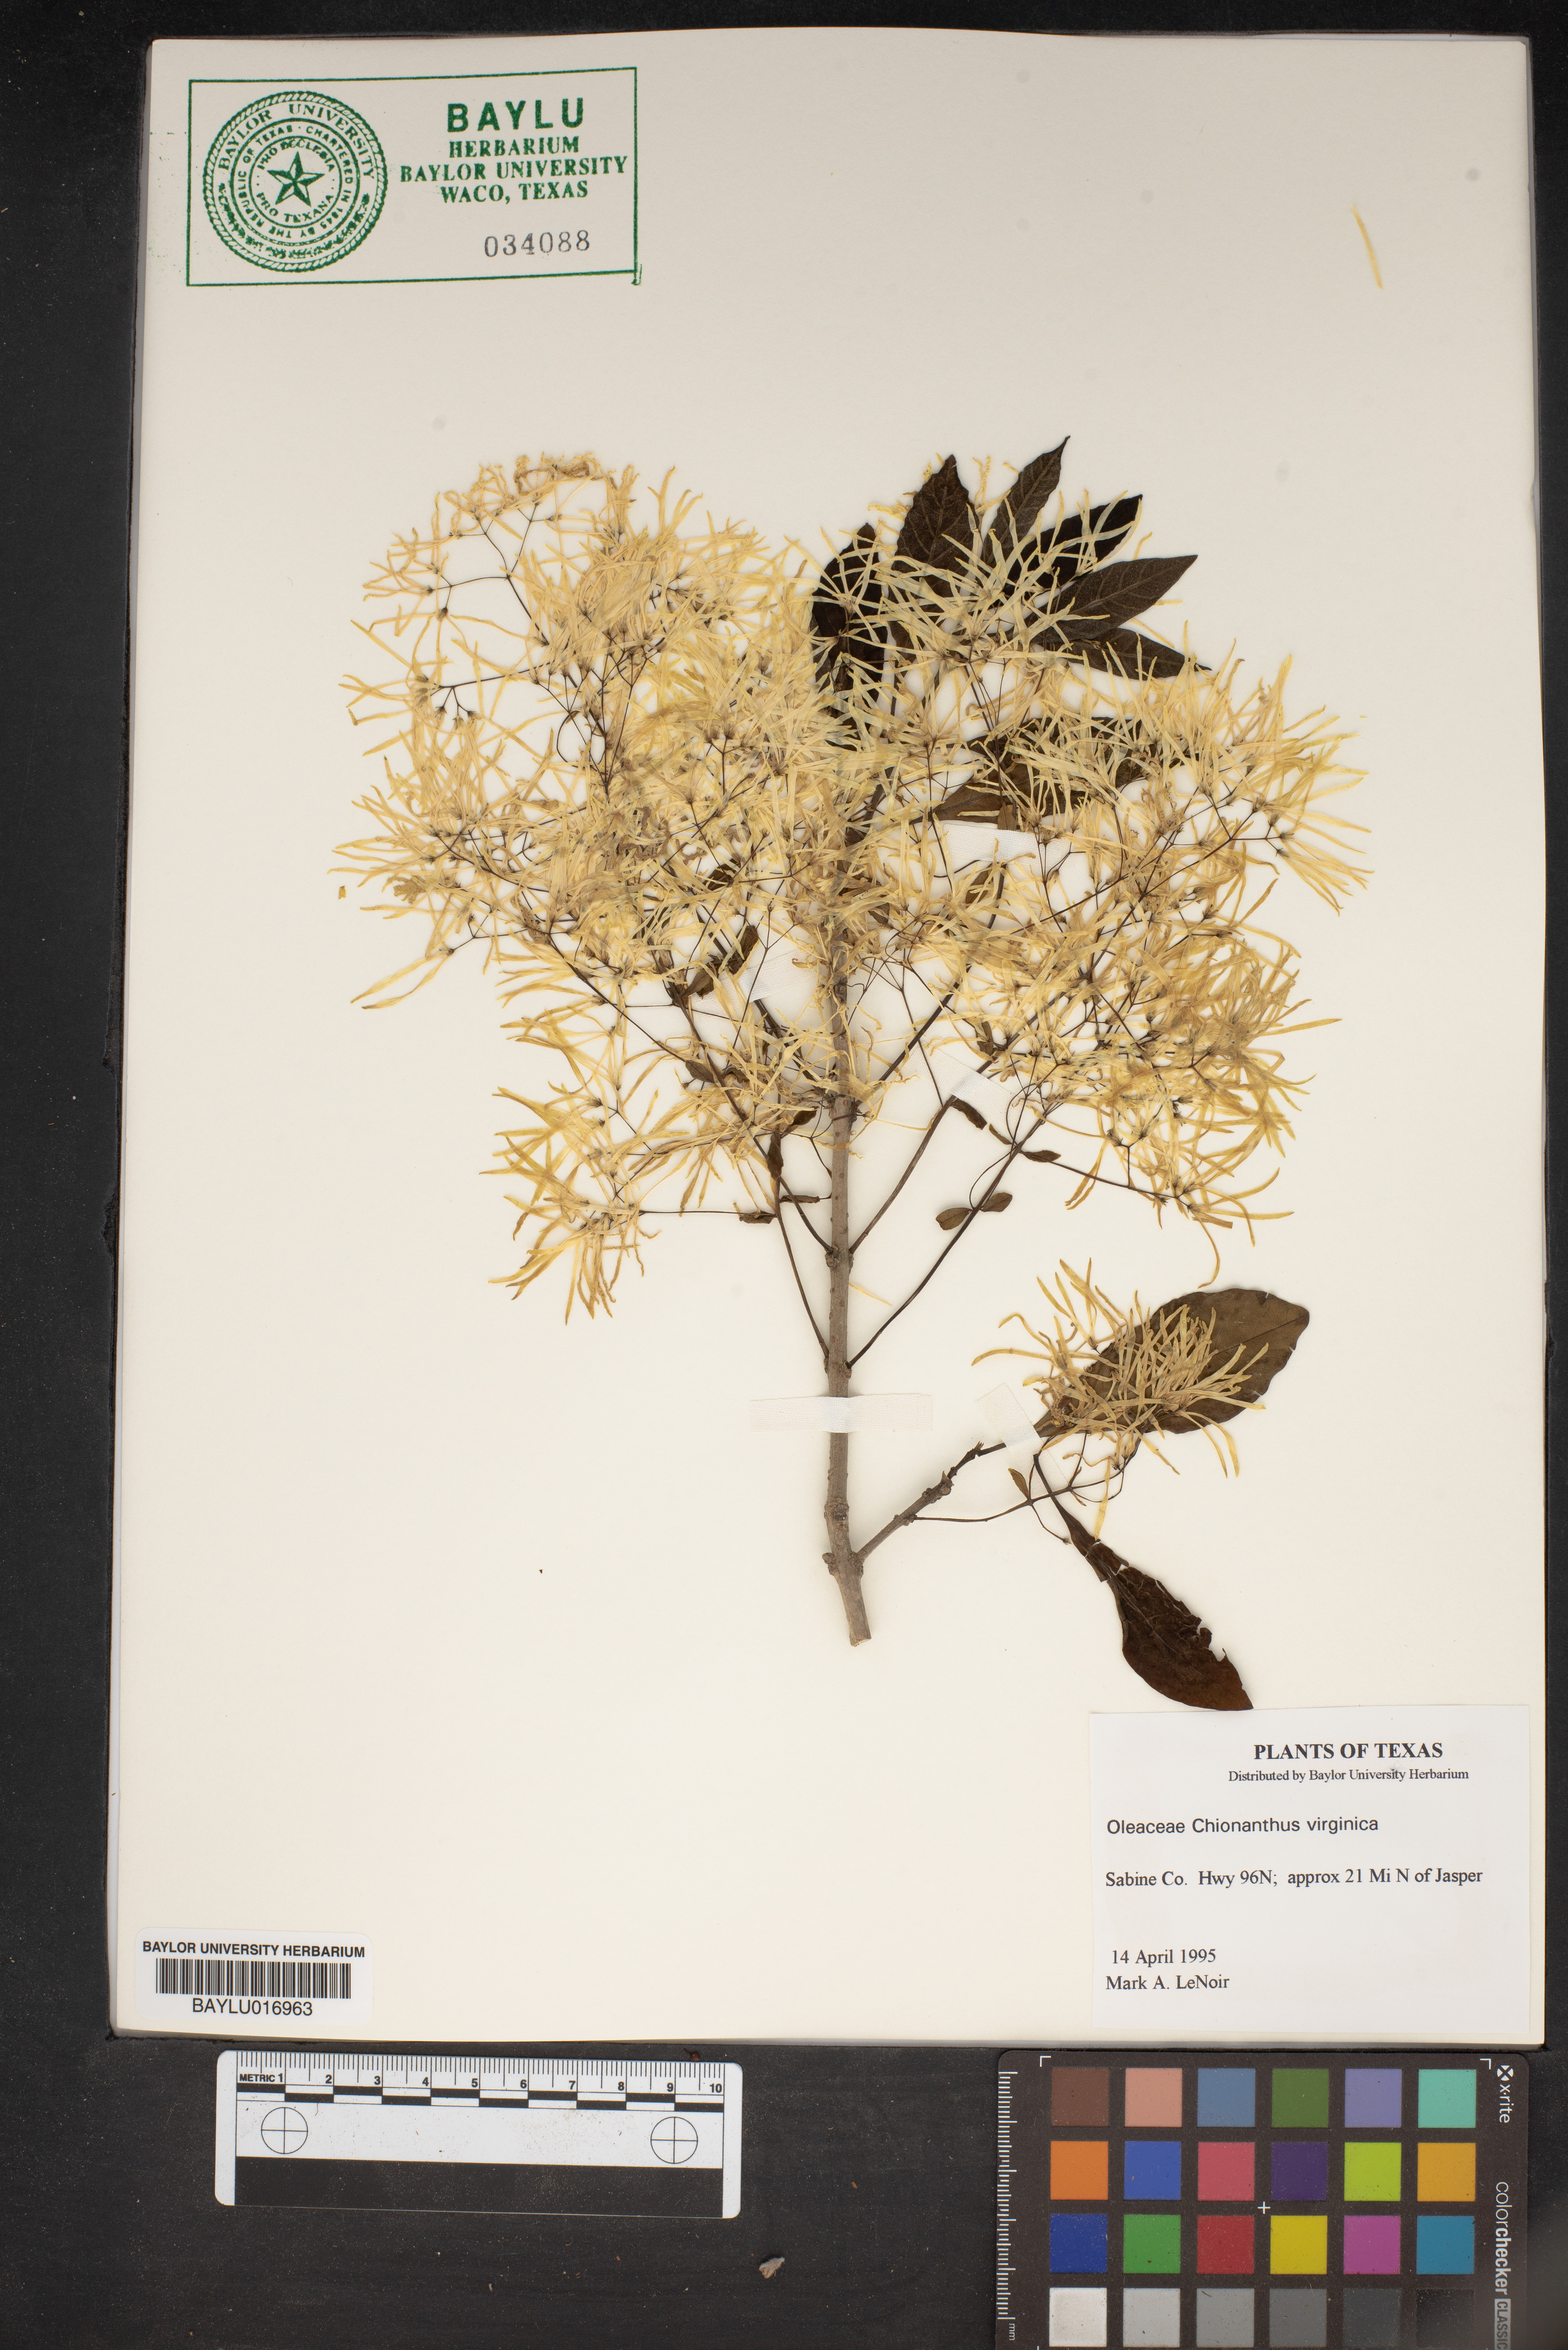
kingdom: Plantae
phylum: Tracheophyta
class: Magnoliopsida
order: Lamiales
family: Oleaceae
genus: Chionanthus
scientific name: Chionanthus virginicus
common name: American fringetree
